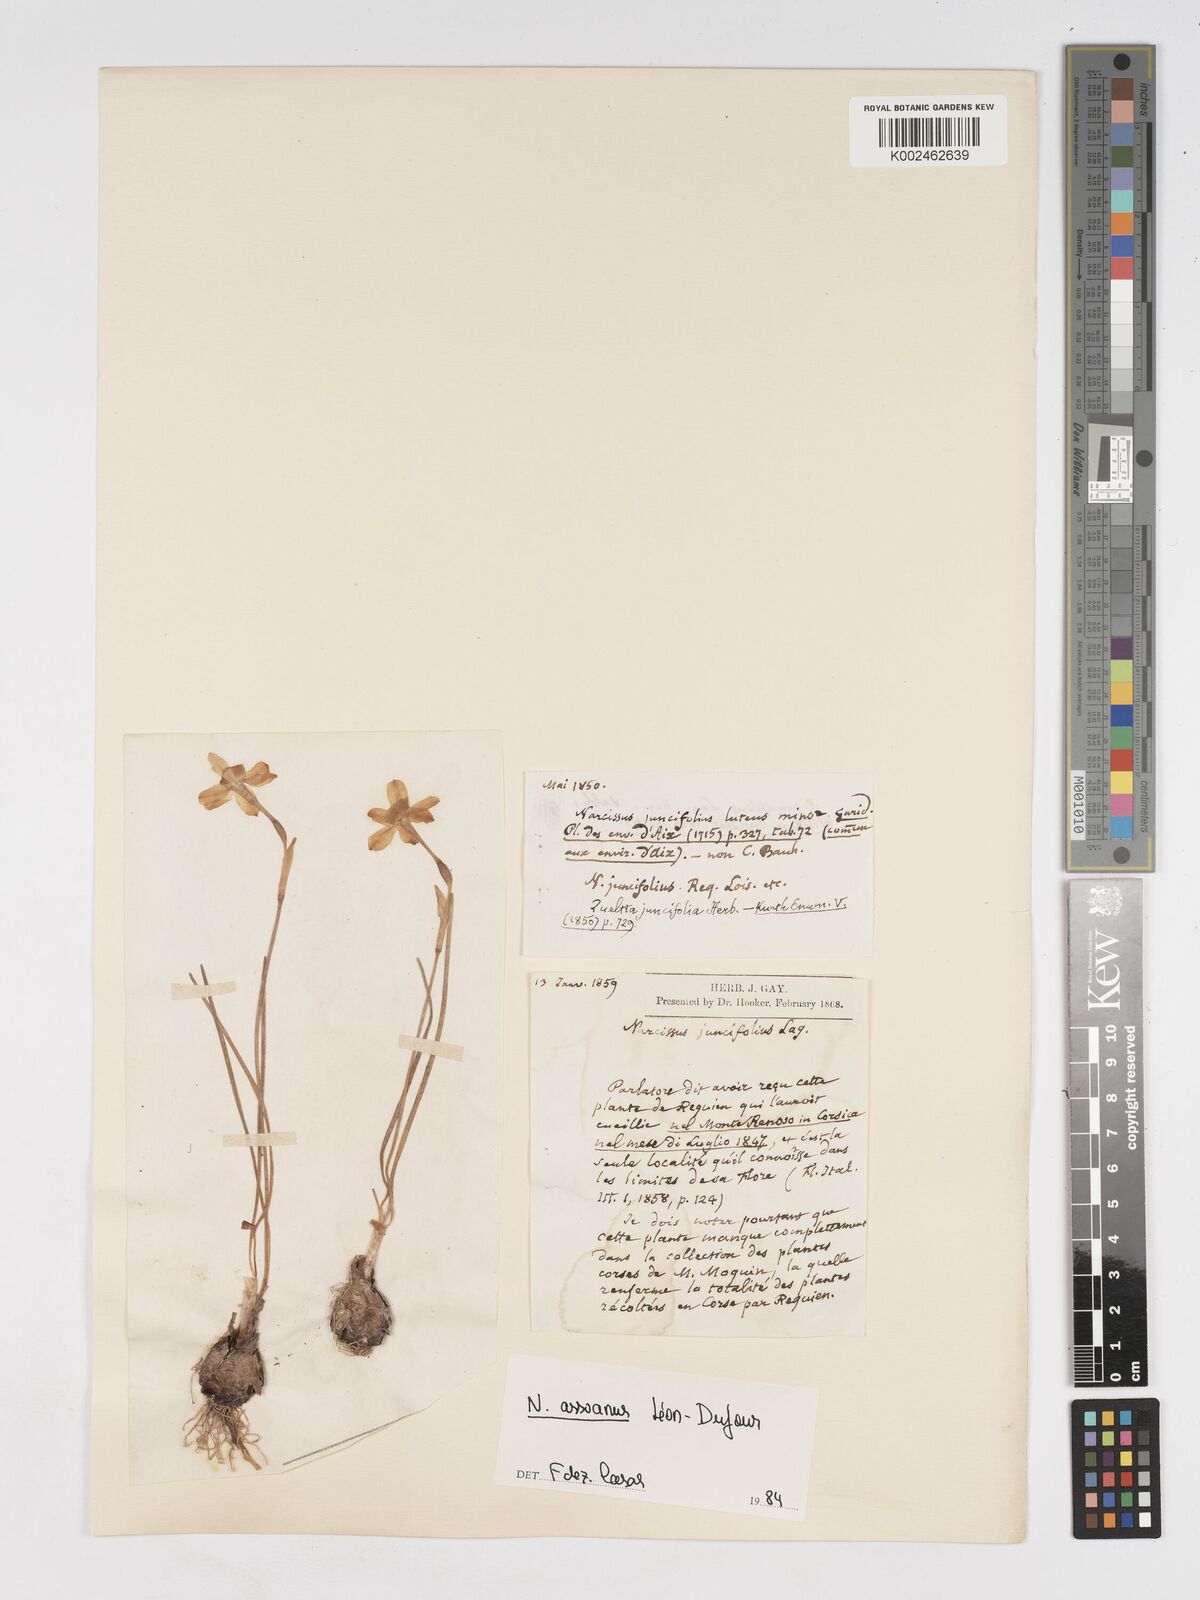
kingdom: Plantae
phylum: Tracheophyta
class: Liliopsida
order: Asparagales
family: Amaryllidaceae
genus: Narcissus
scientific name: Narcissus assoanus
